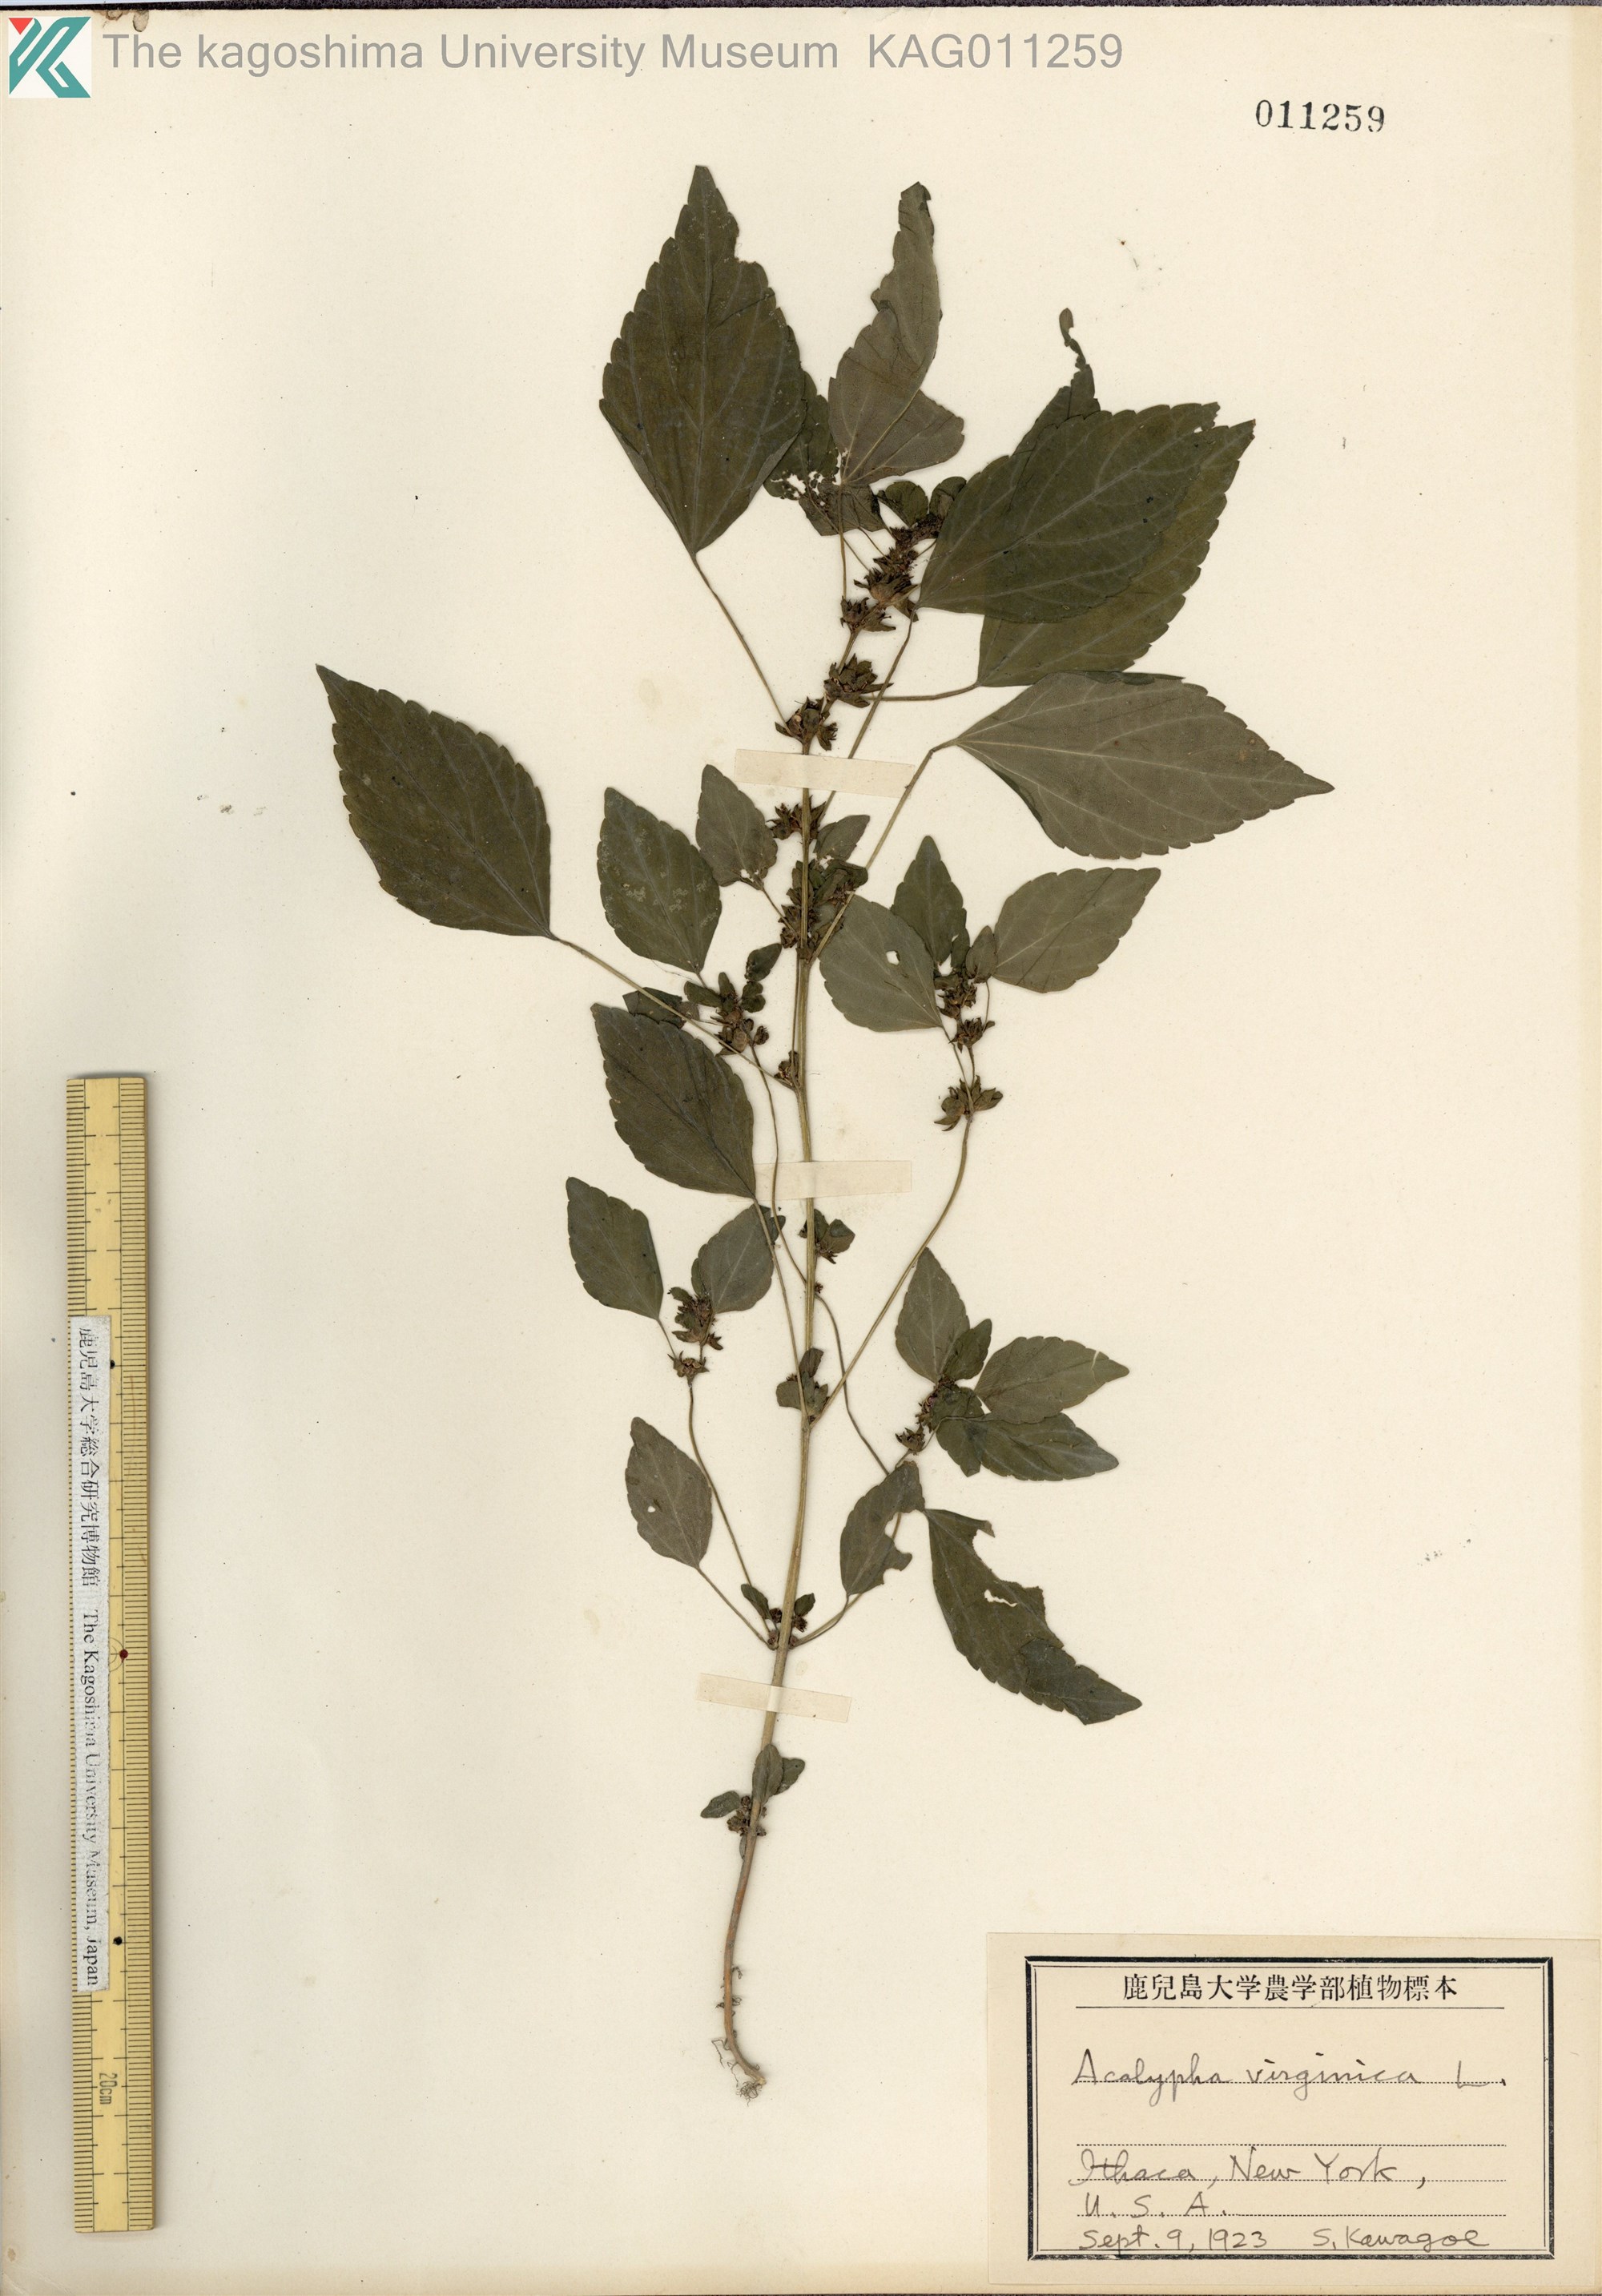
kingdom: Plantae
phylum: Tracheophyta
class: Magnoliopsida
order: Malpighiales
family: Euphorbiaceae
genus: Acalypha
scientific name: Acalypha virginica
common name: Virginia copperleaf
